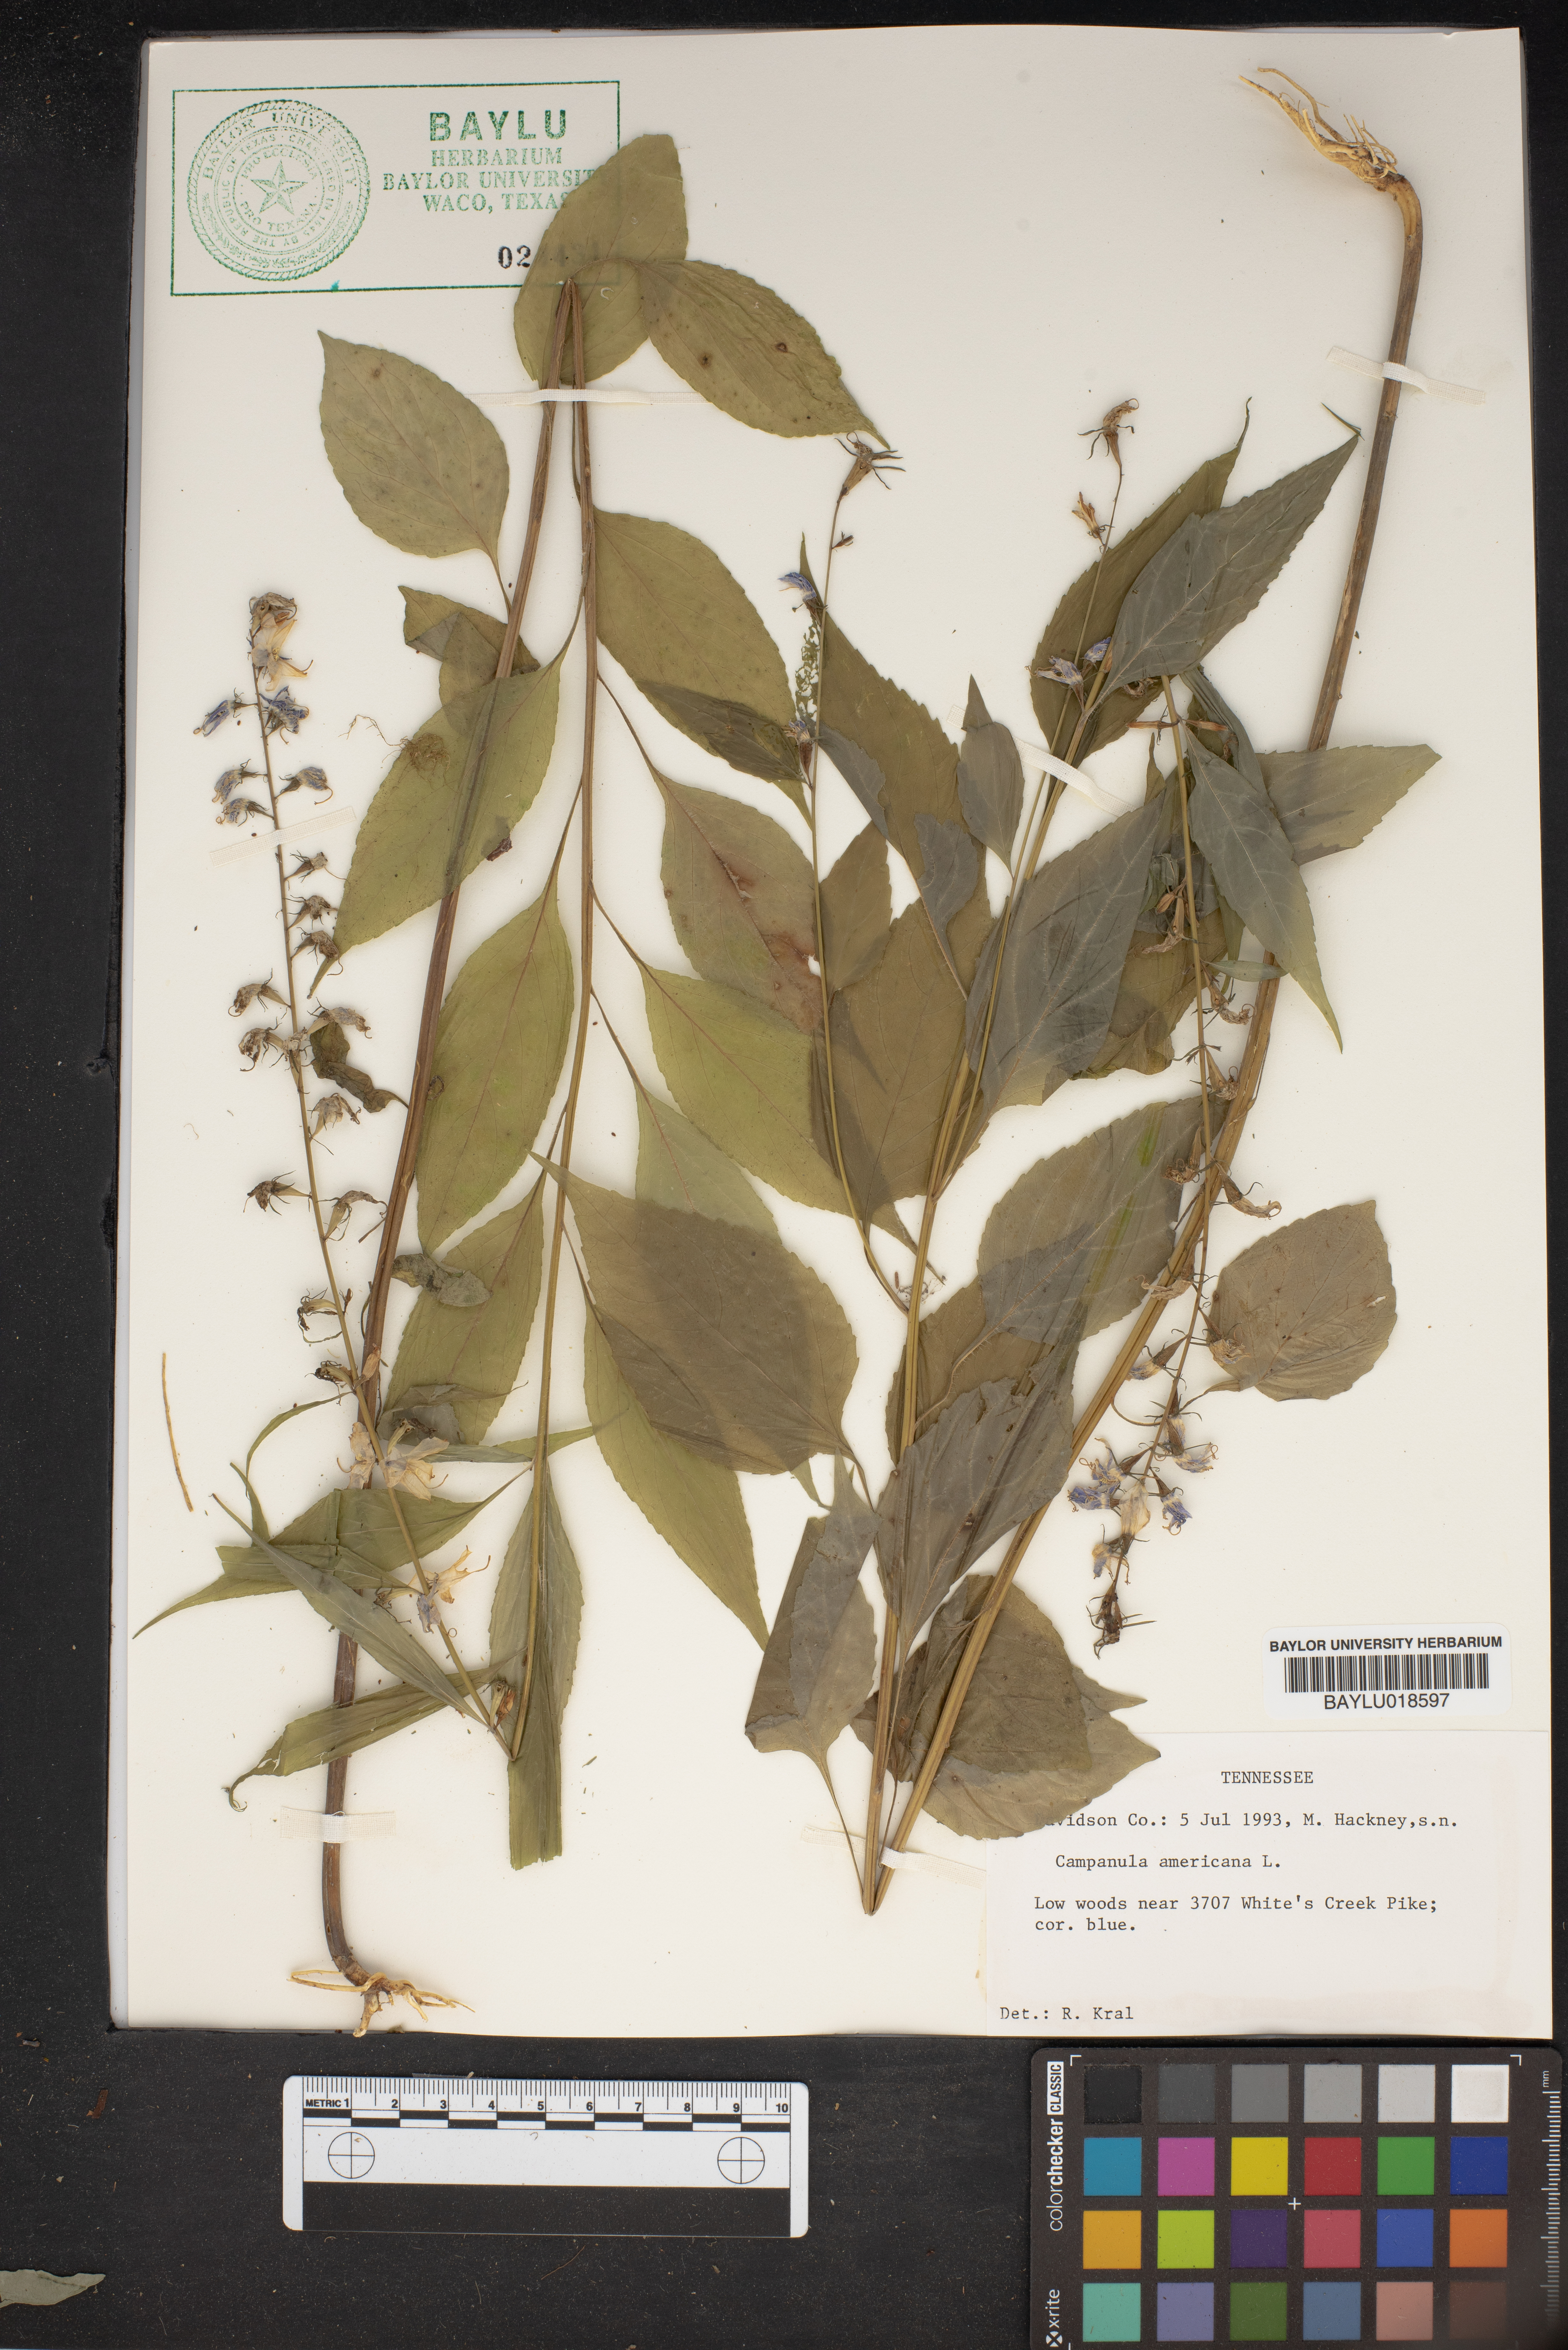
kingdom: Plantae
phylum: Tracheophyta
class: Magnoliopsida
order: Asterales
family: Campanulaceae
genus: Campanula
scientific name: Campanula americana
